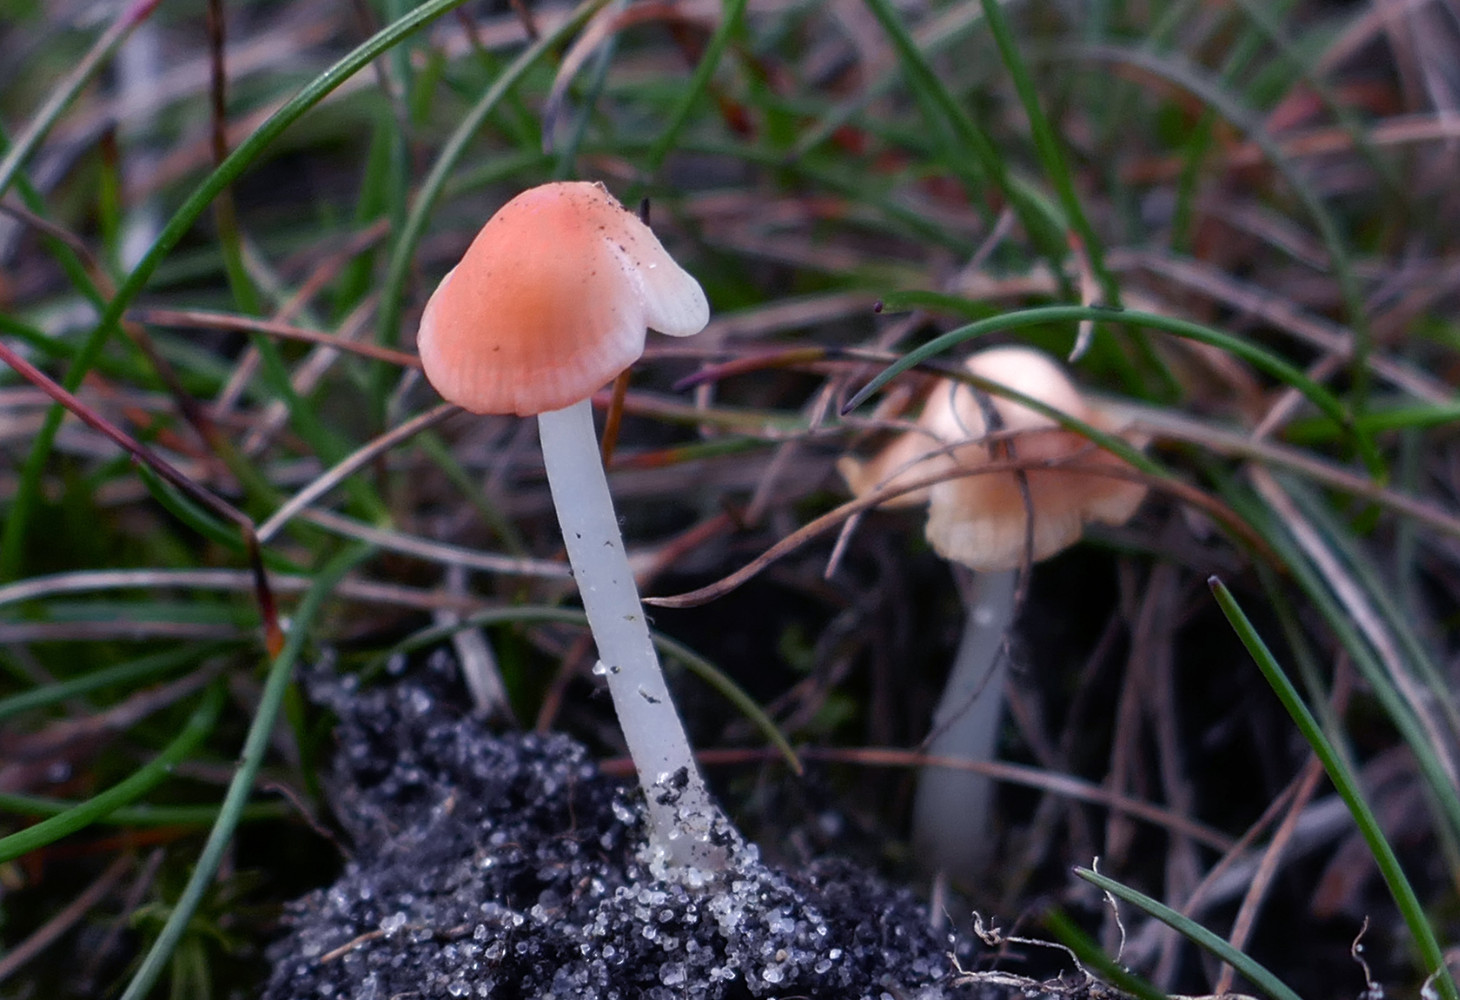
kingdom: Fungi
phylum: Basidiomycota
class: Agaricomycetes
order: Agaricales
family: Mycenaceae
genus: Atheniella
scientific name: Atheniella adonis
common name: rønnerød huesvamp
